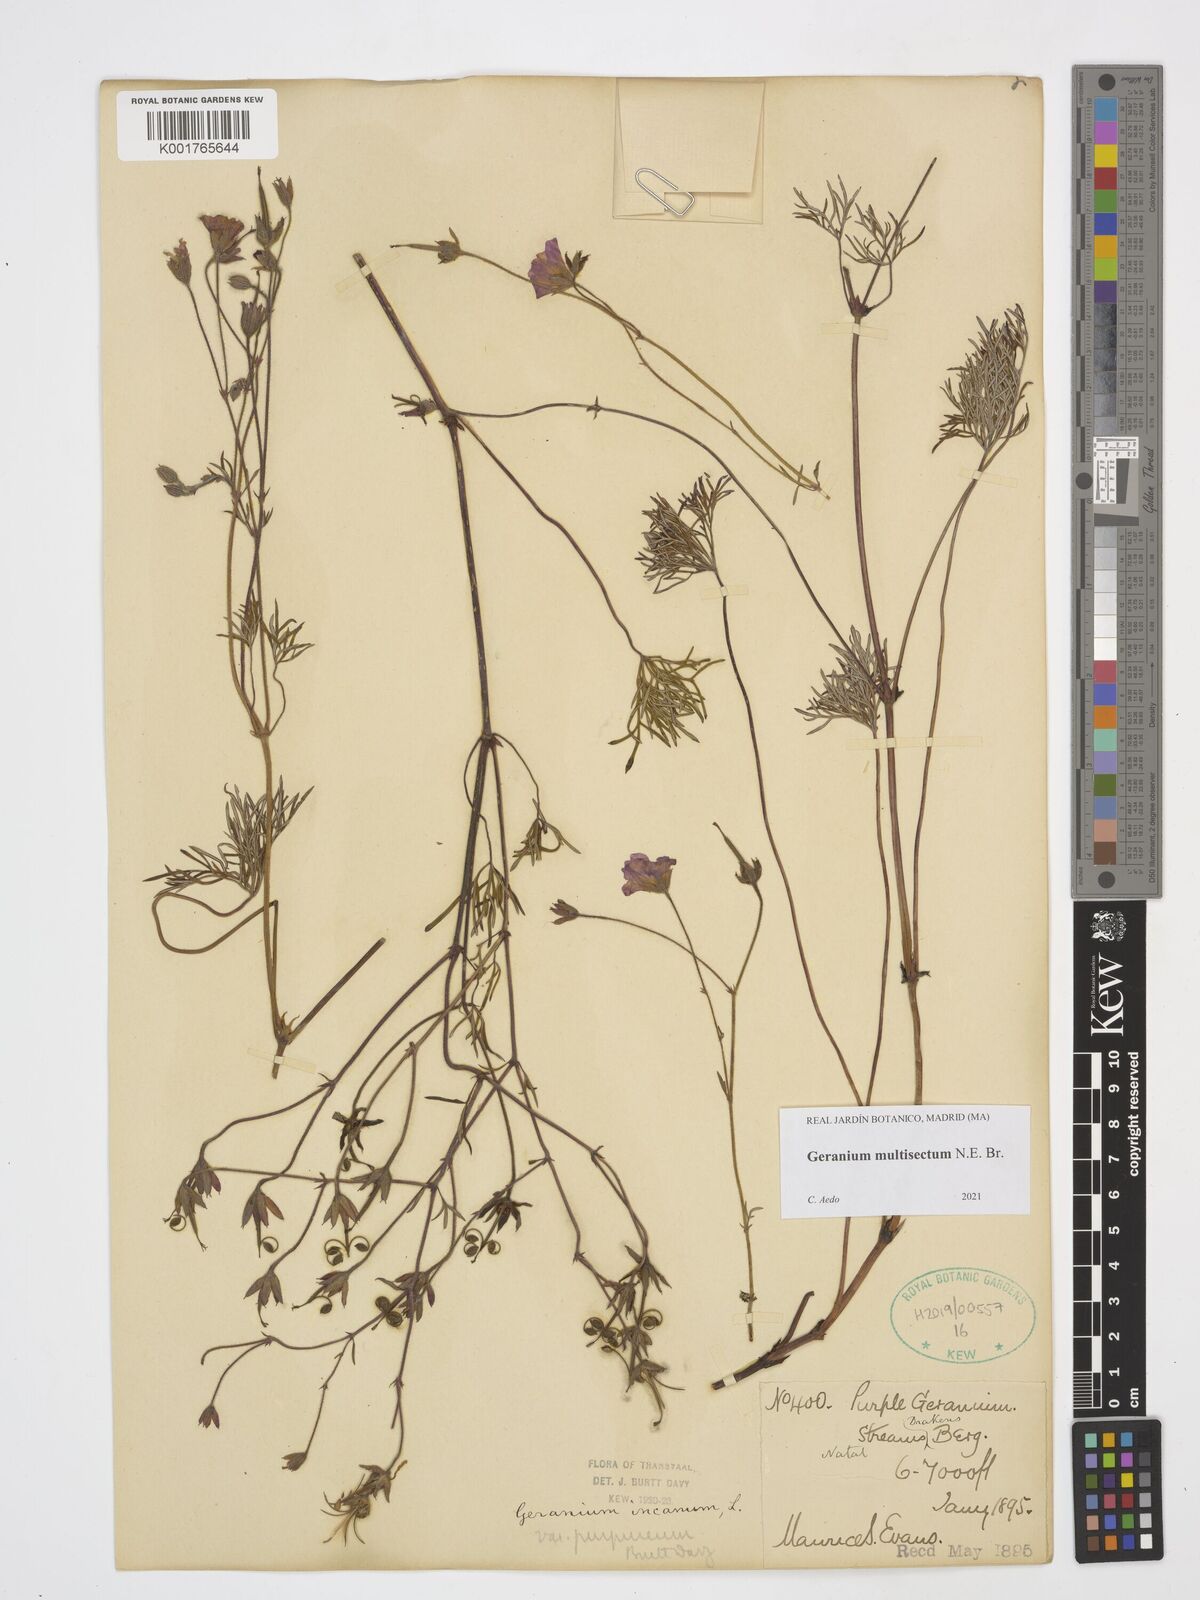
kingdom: Plantae
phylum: Tracheophyta
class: Magnoliopsida
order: Geraniales
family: Geraniaceae
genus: Geranium
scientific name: Geranium multisectum
